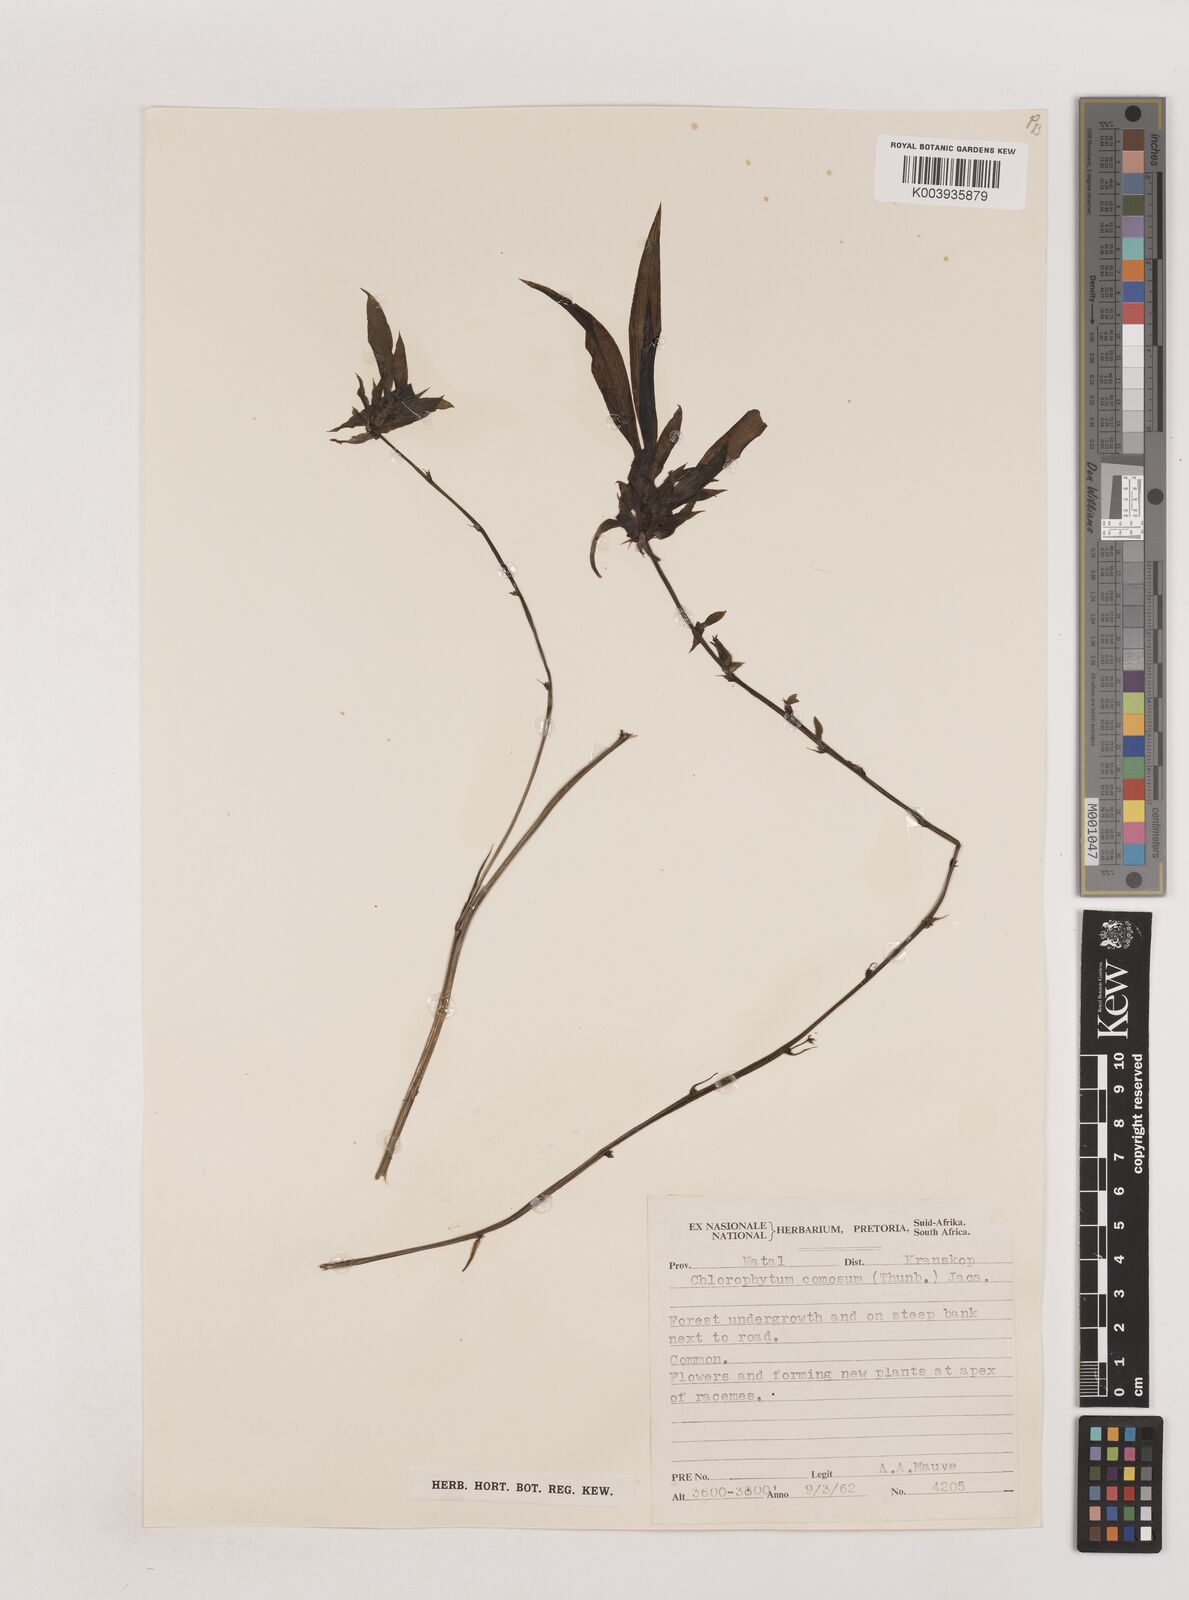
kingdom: Plantae
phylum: Tracheophyta
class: Liliopsida
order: Asparagales
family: Asparagaceae
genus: Chlorophytum
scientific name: Chlorophytum comosum
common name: Spider plant
